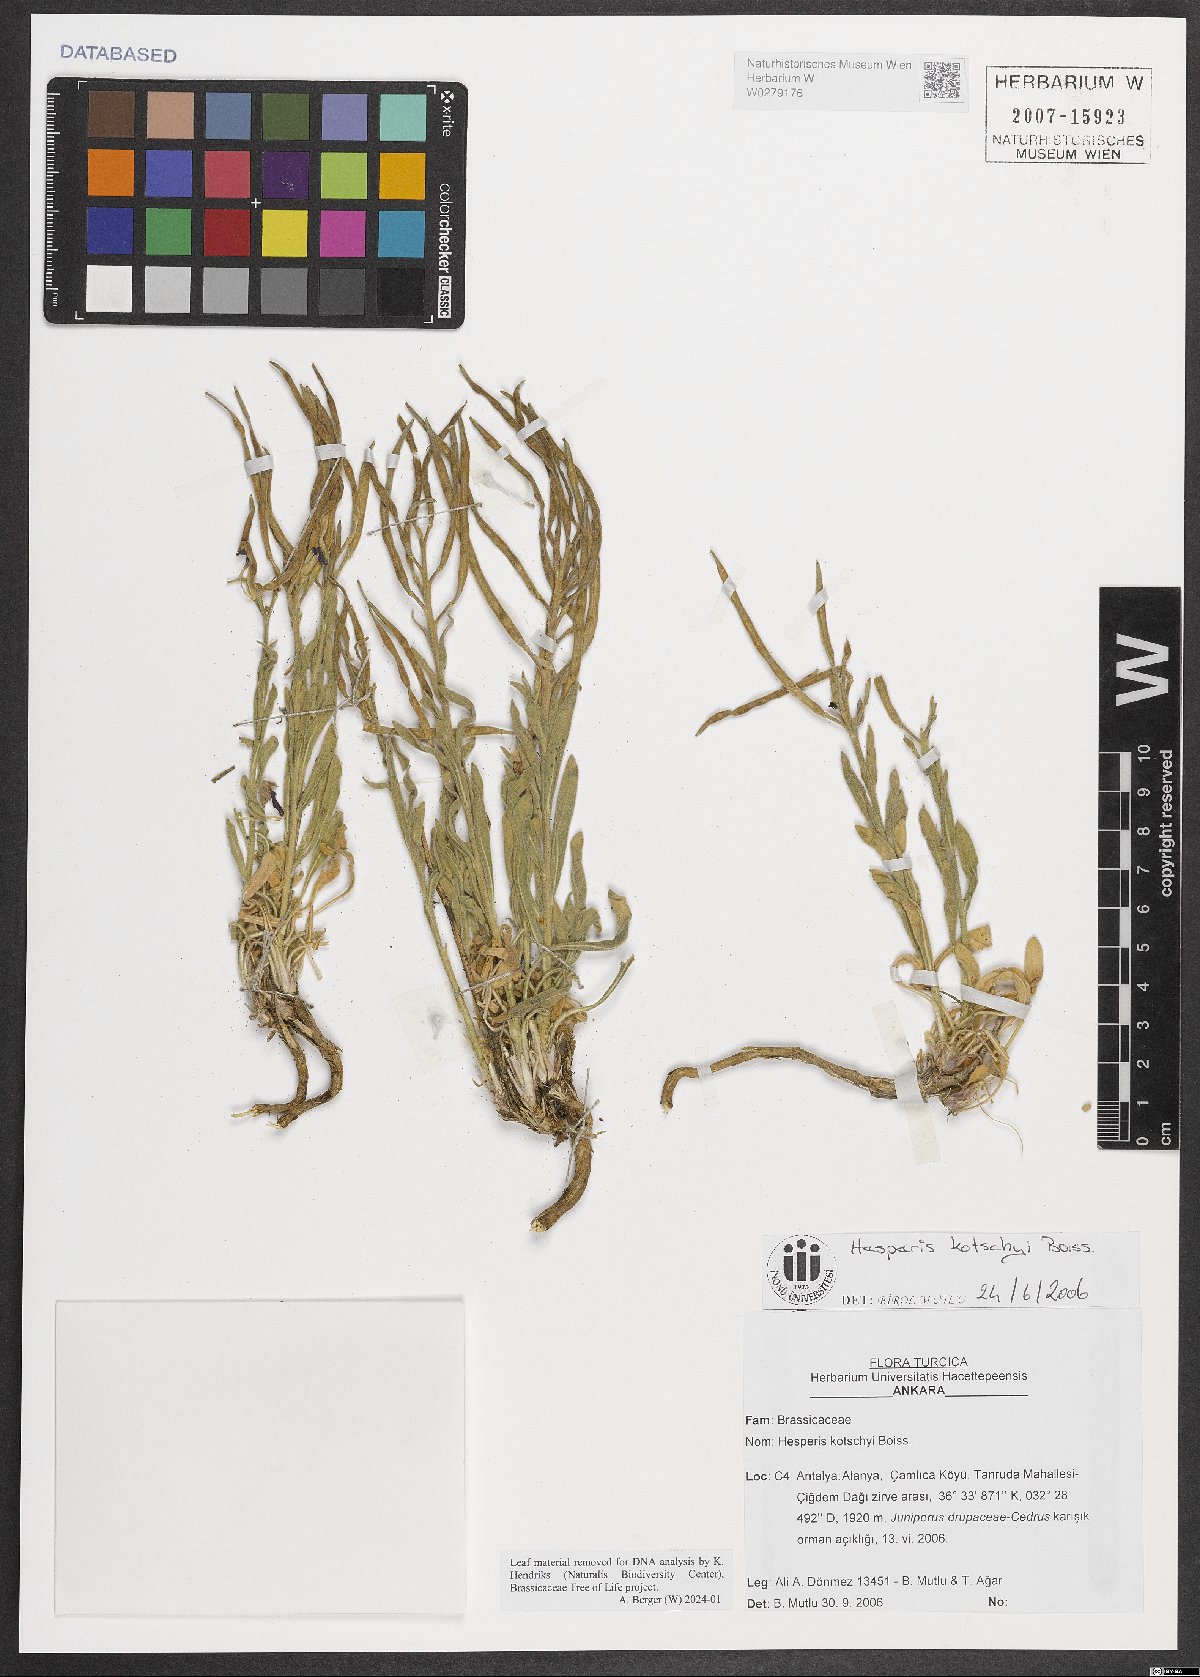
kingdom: Plantae
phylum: Tracheophyta
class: Magnoliopsida
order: Brassicales
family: Brassicaceae
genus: Hesperis
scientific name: Hesperis kotschyi
